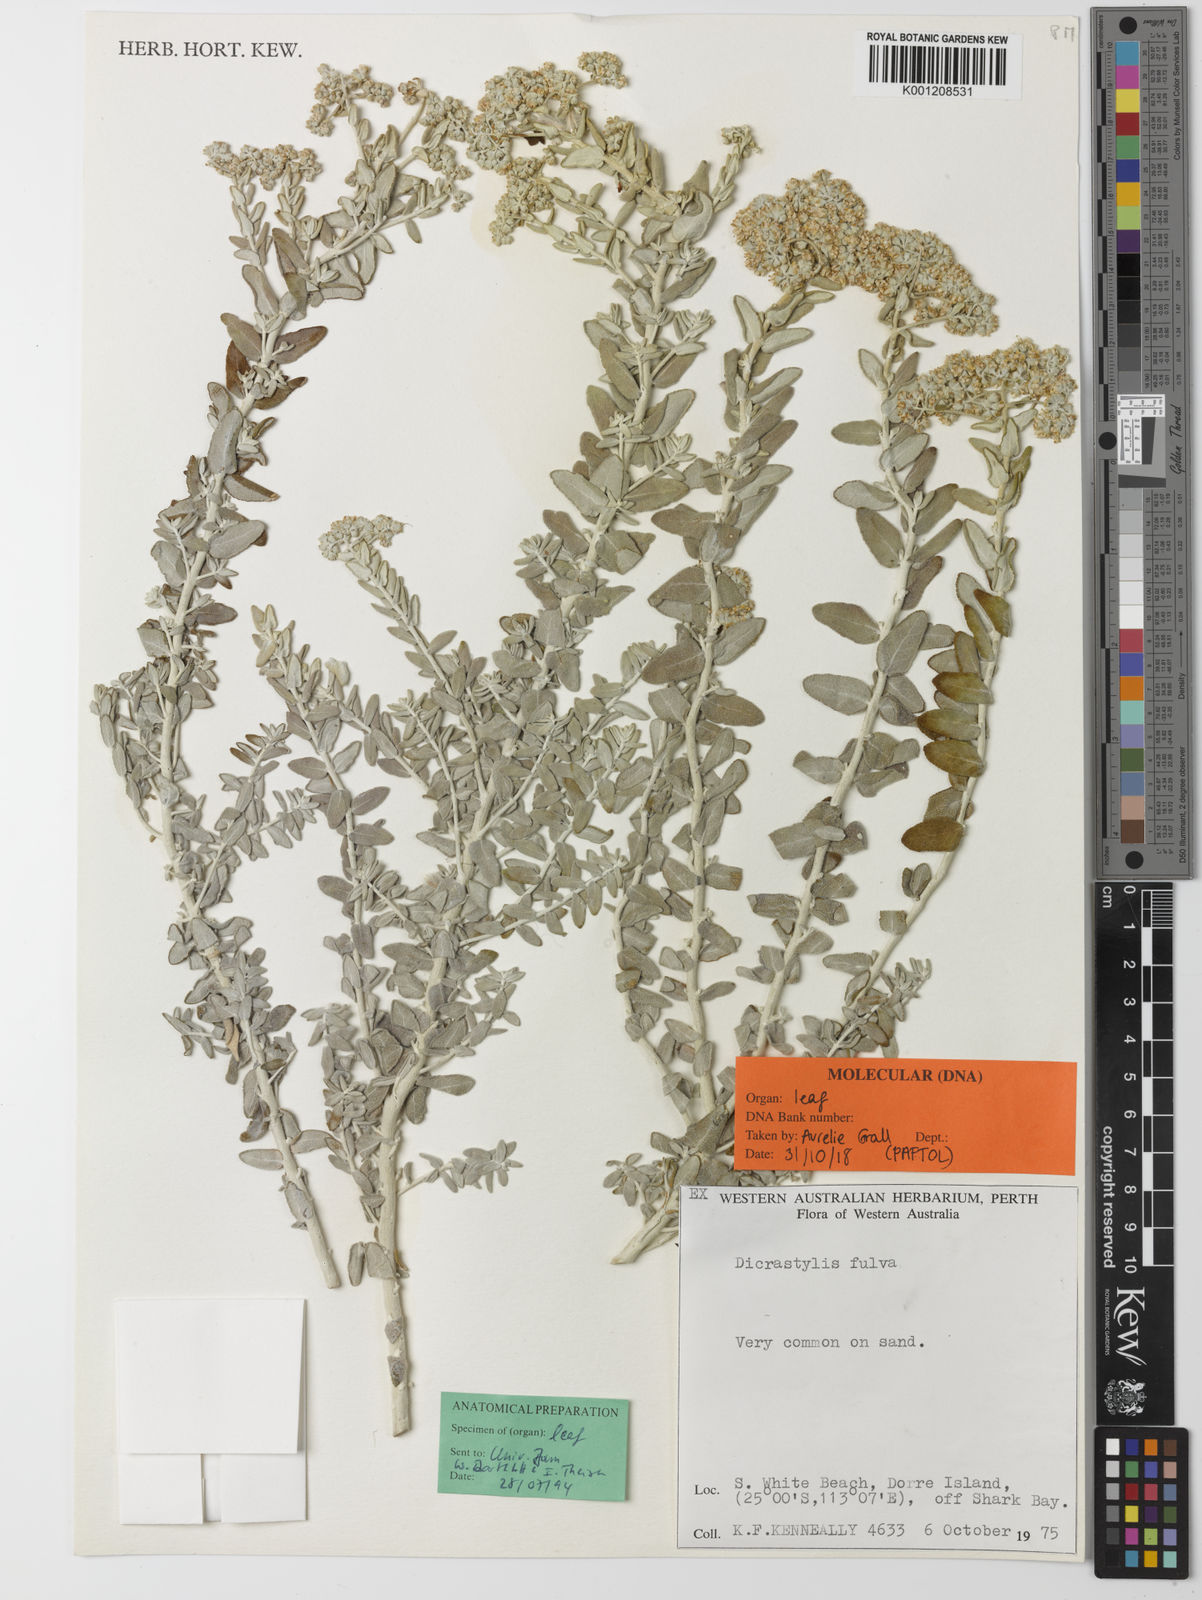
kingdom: Plantae
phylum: Tracheophyta
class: Magnoliopsida
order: Lamiales
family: Lamiaceae
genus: Dicrastylis
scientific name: Dicrastylis fulva
